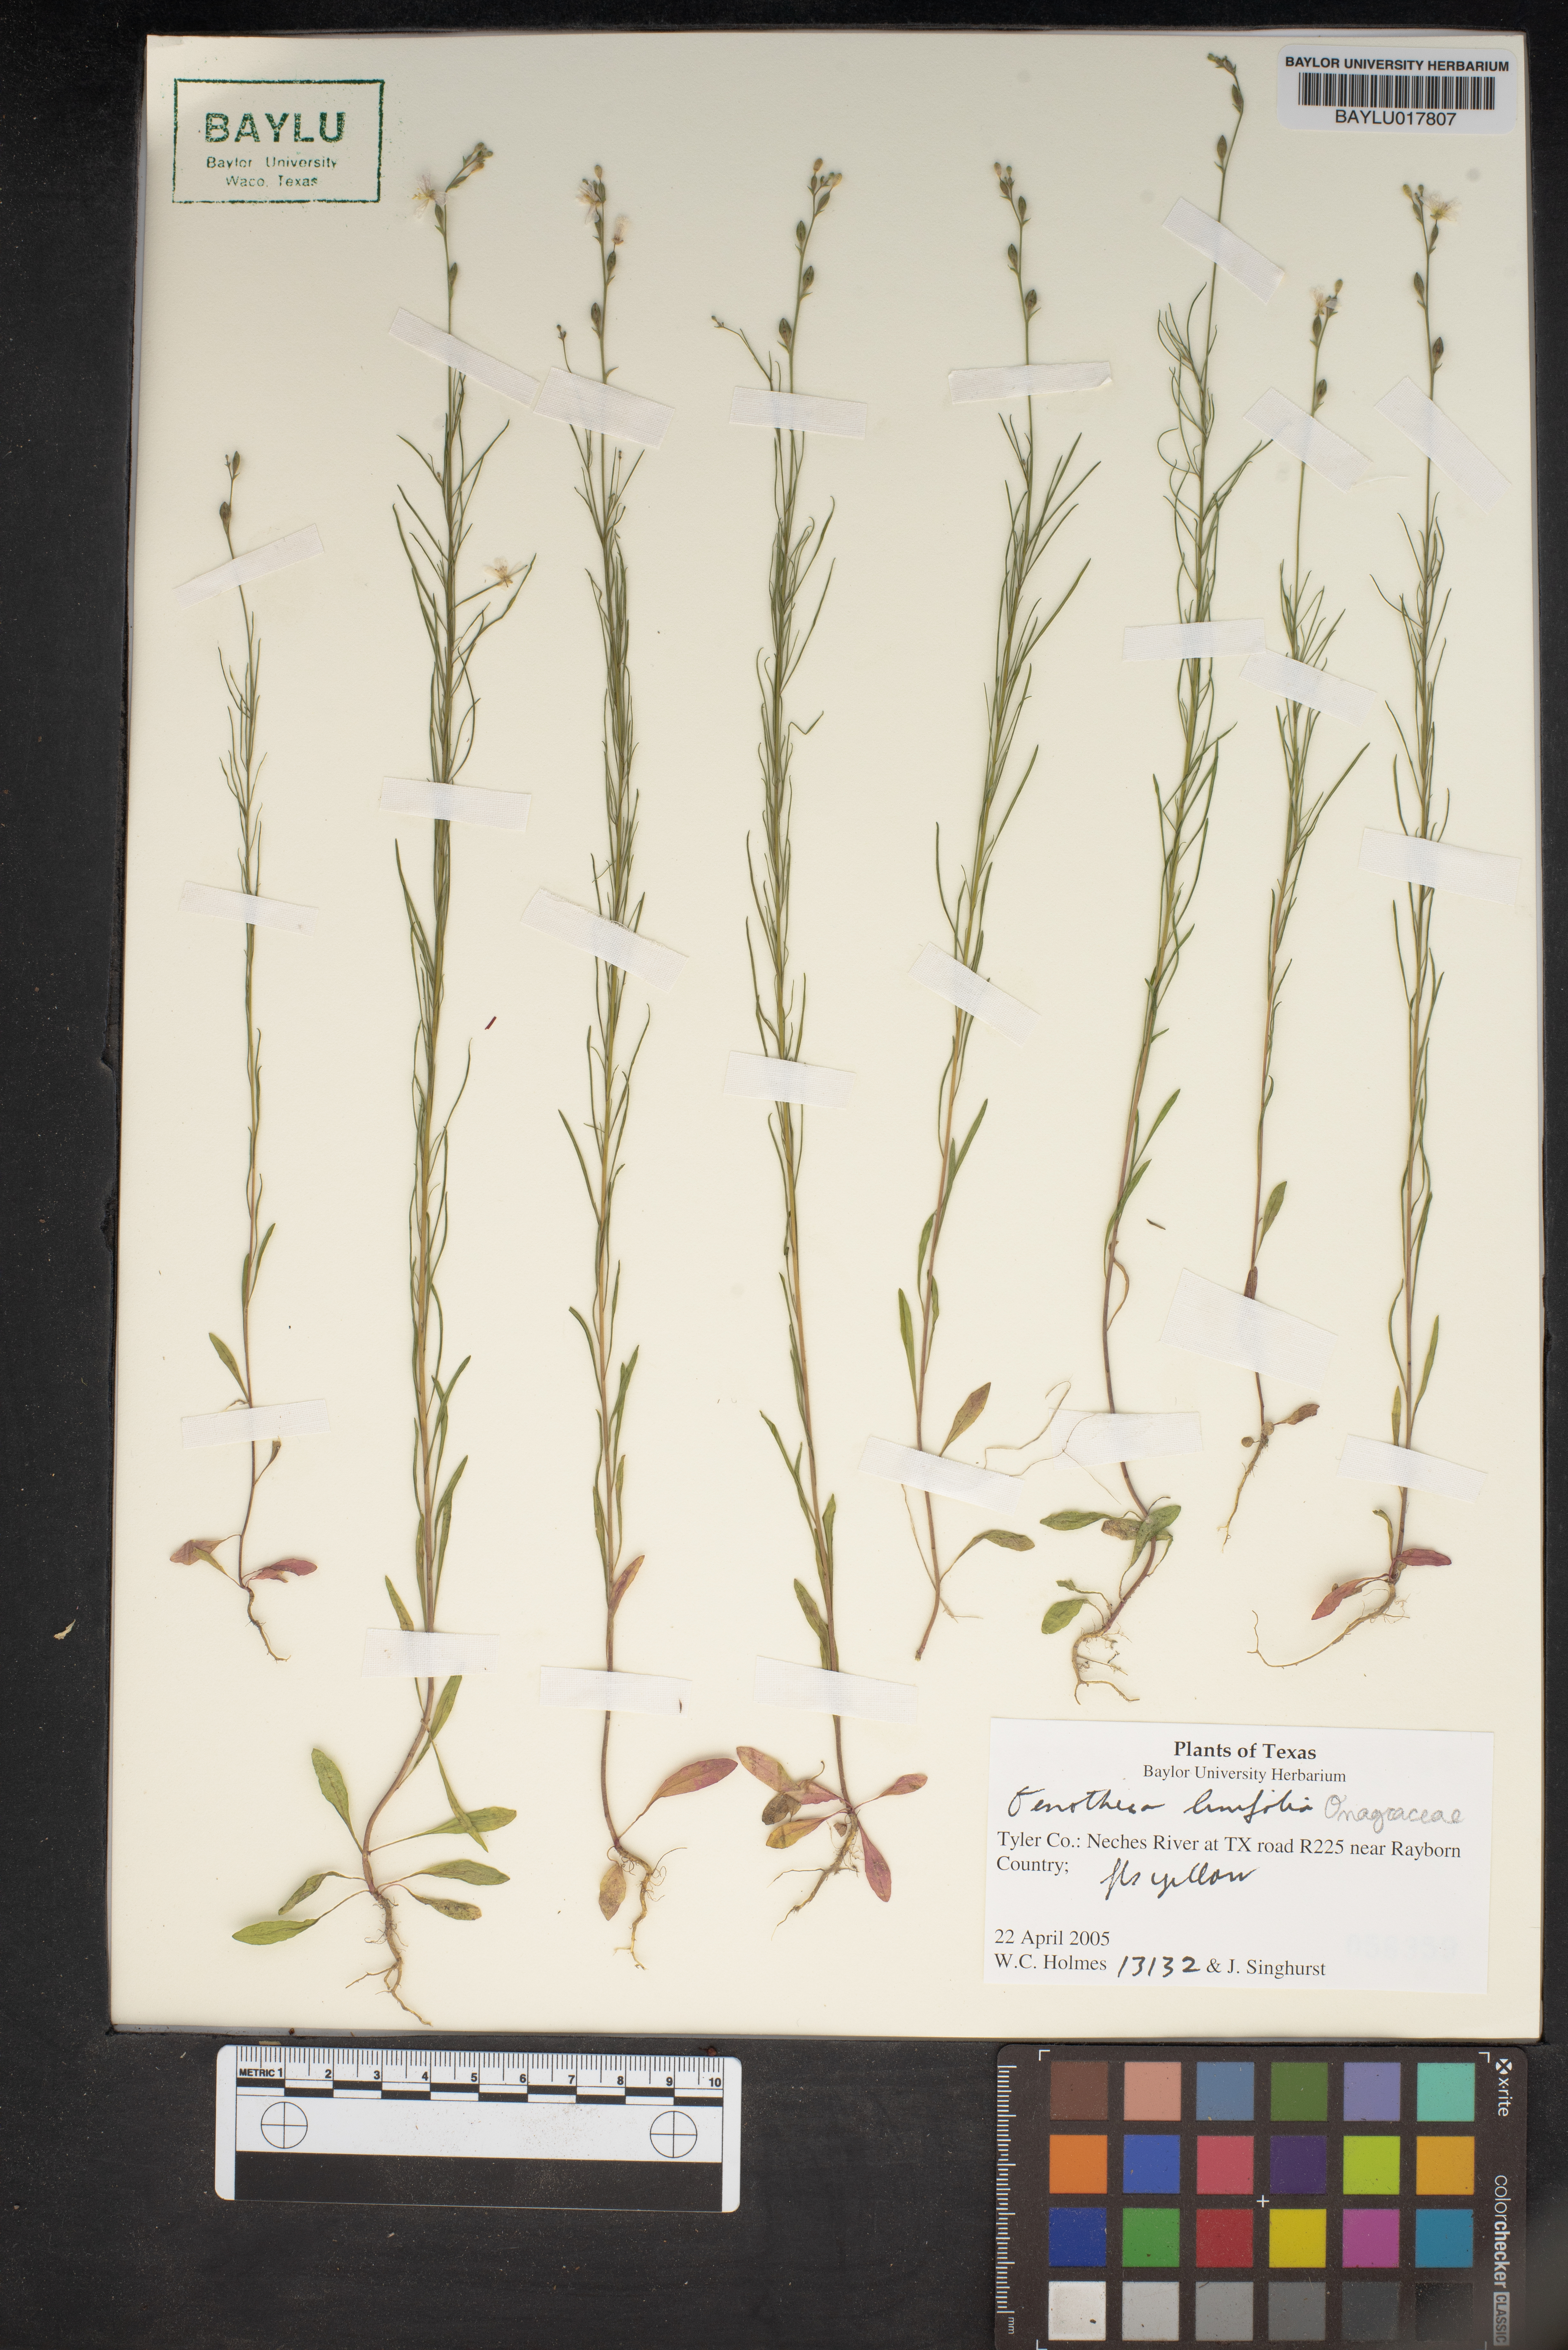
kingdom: Plantae
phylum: Tracheophyta
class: Magnoliopsida
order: Myrtales
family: Onagraceae
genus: Oenothera
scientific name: Oenothera linifolia
